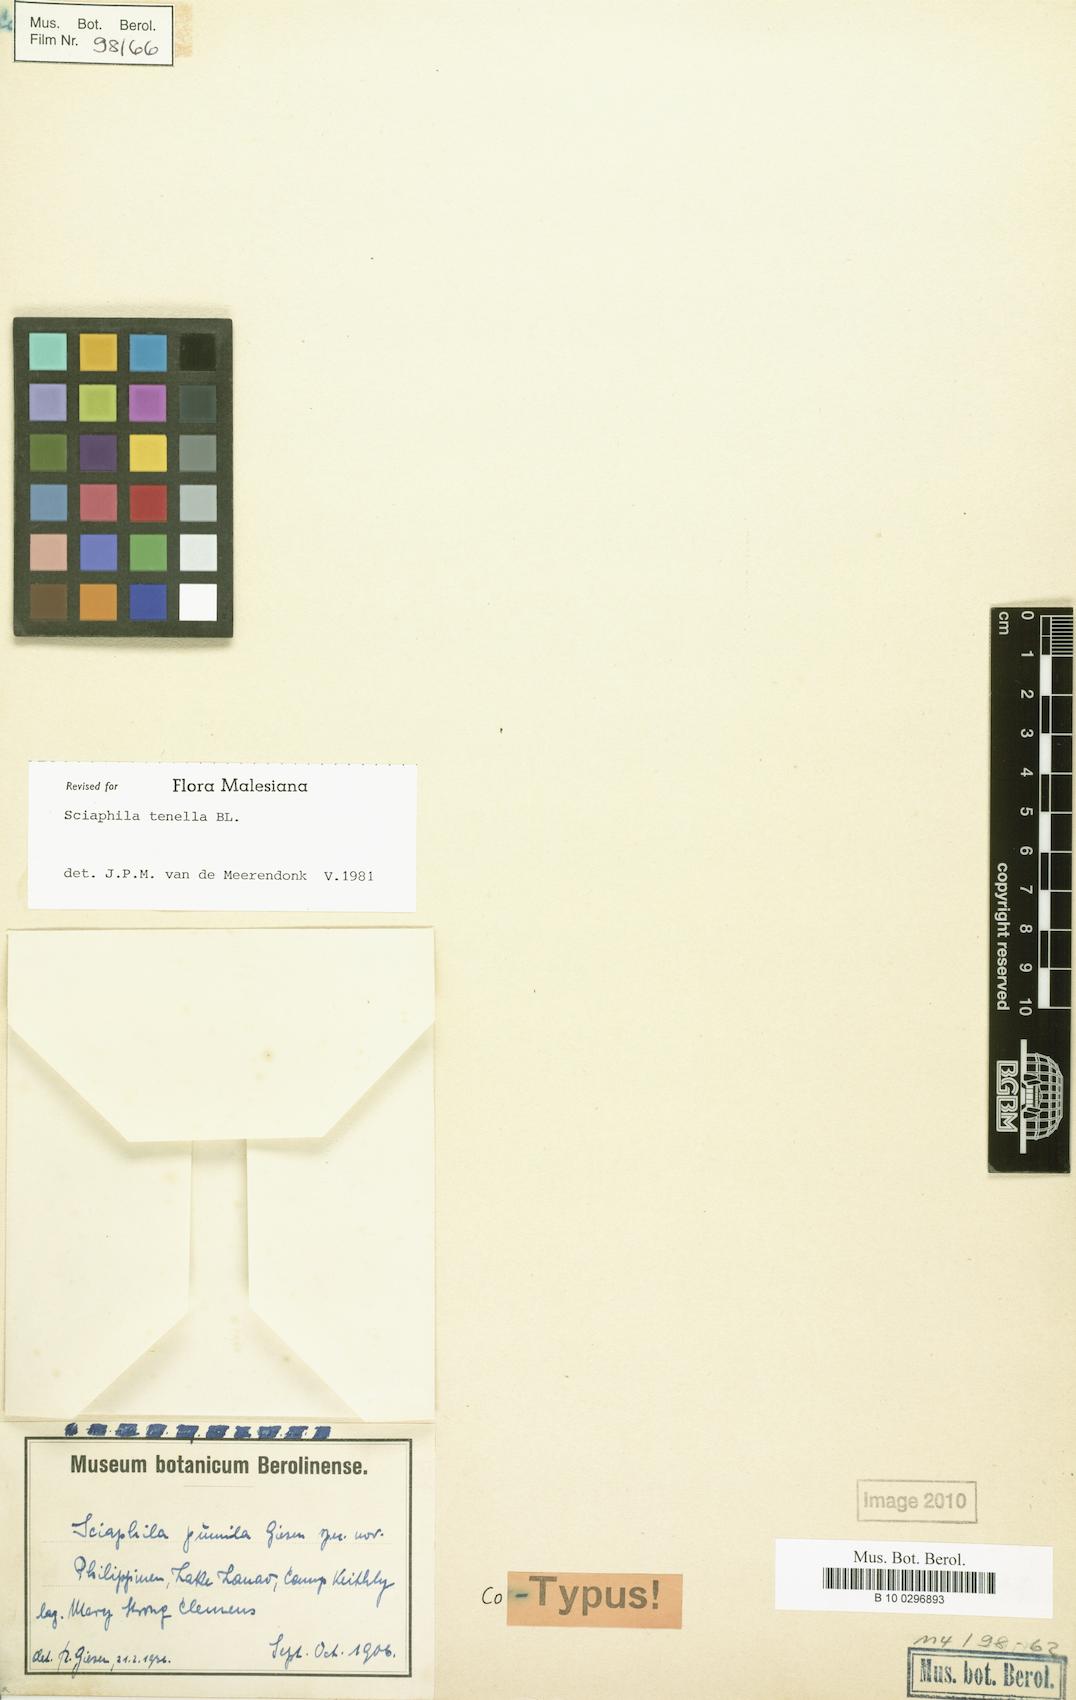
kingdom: Plantae
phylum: Tracheophyta
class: Liliopsida
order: Pandanales
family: Triuridaceae
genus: Sciaphila
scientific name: Sciaphila tenella
